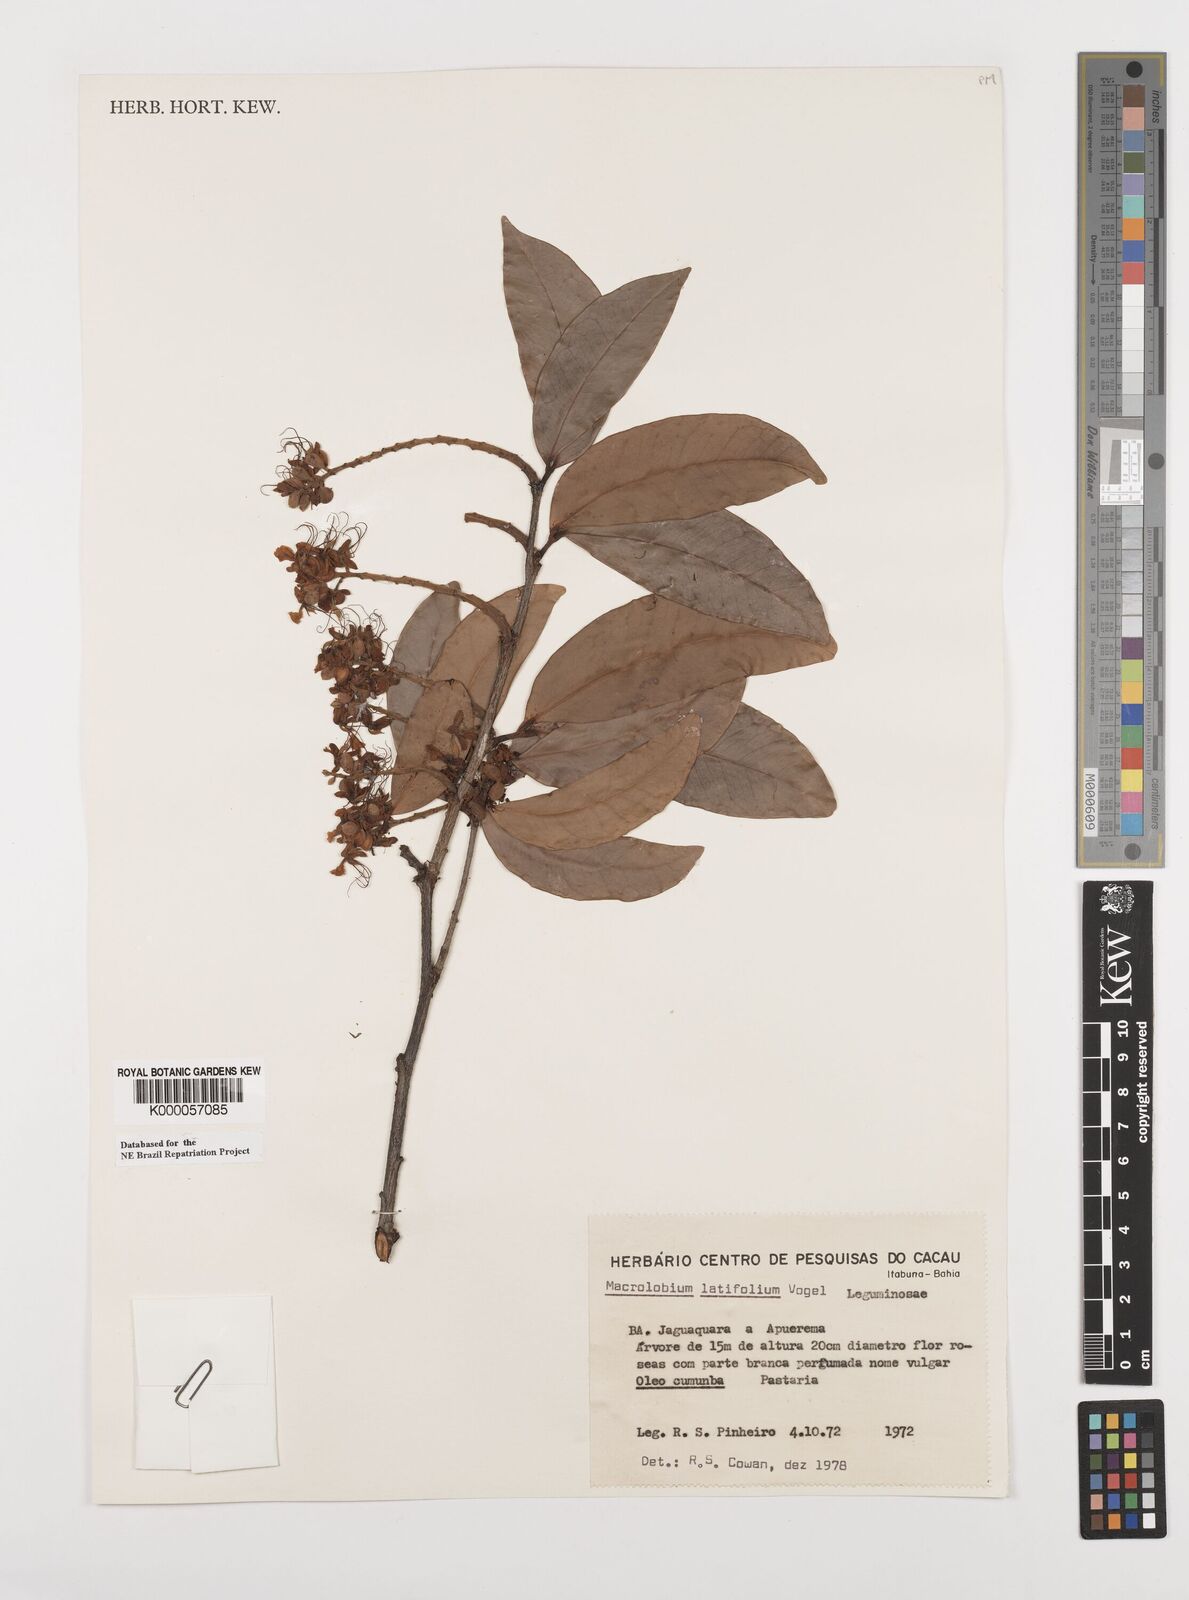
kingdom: Plantae
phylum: Tracheophyta
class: Magnoliopsida
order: Fabales
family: Fabaceae
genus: Macrolobium
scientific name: Macrolobium latifolium
